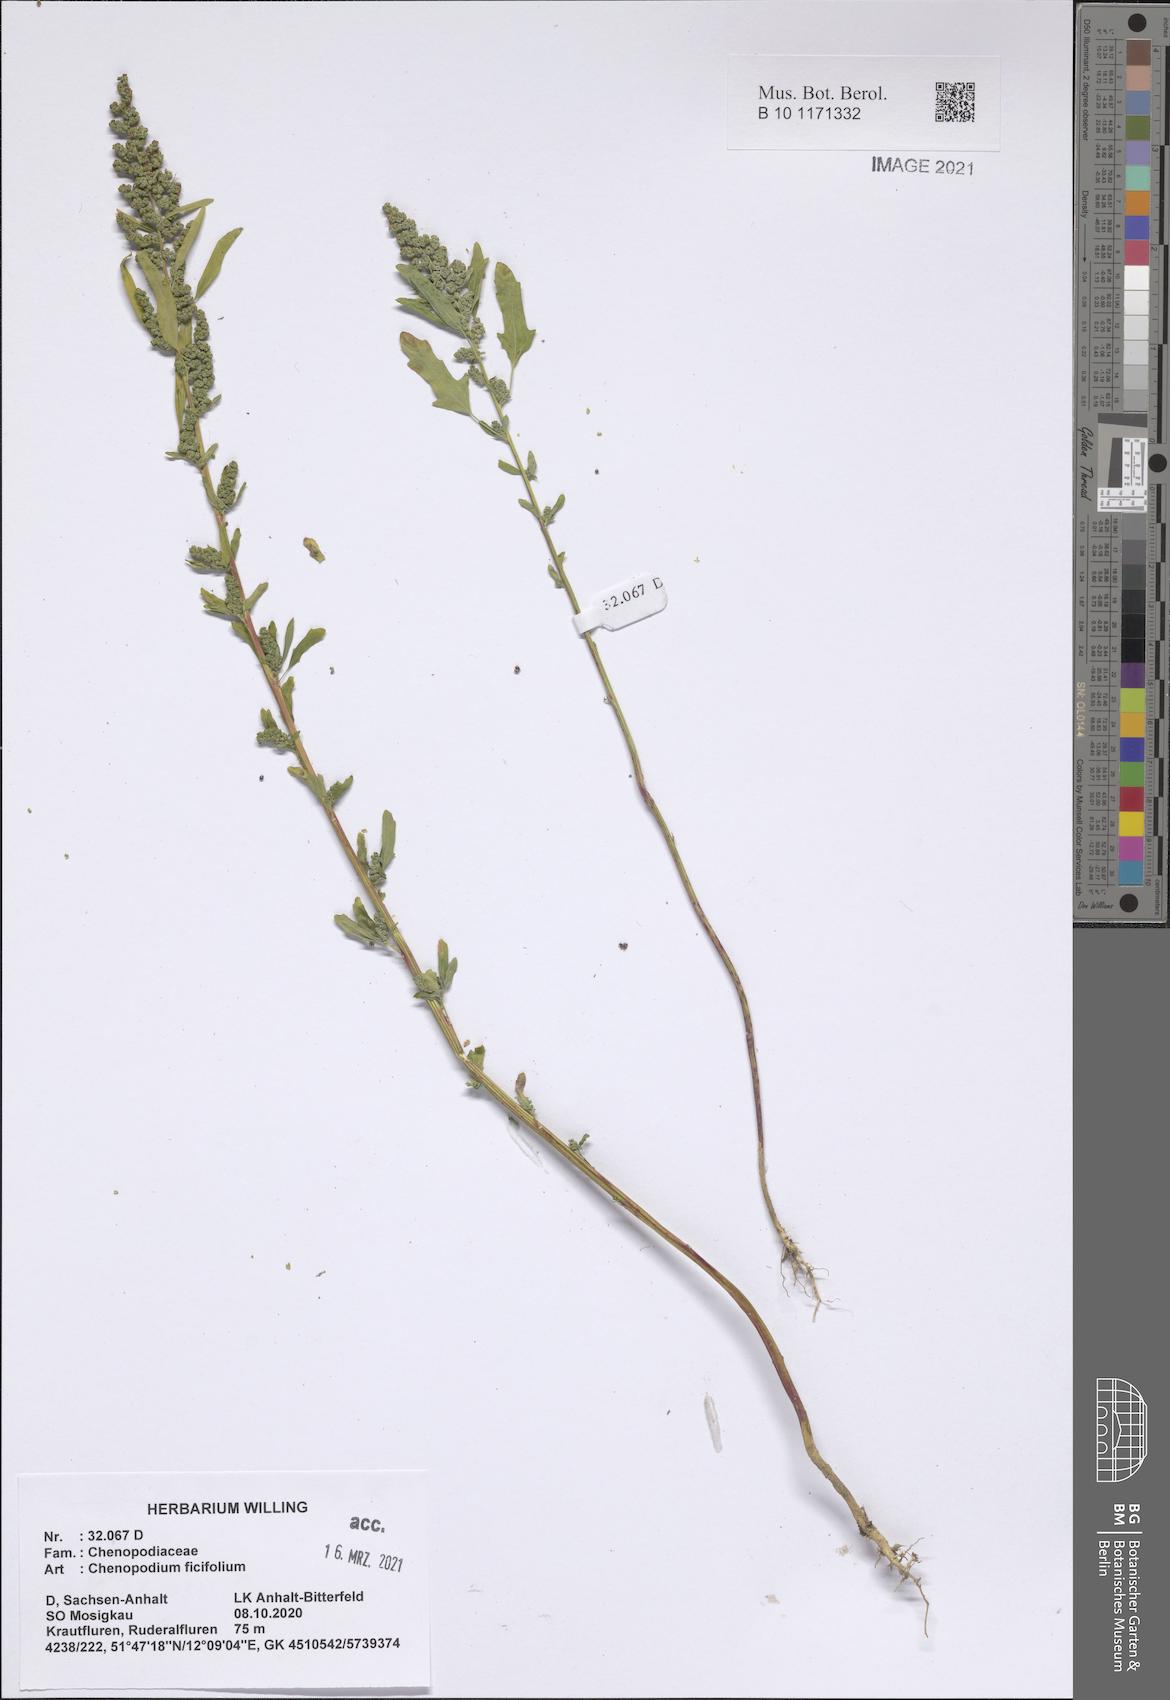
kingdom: Plantae
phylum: Tracheophyta
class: Magnoliopsida
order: Caryophyllales
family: Amaranthaceae
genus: Chenopodium
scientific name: Chenopodium ficifolium
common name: Fig-leaved goosefoot
